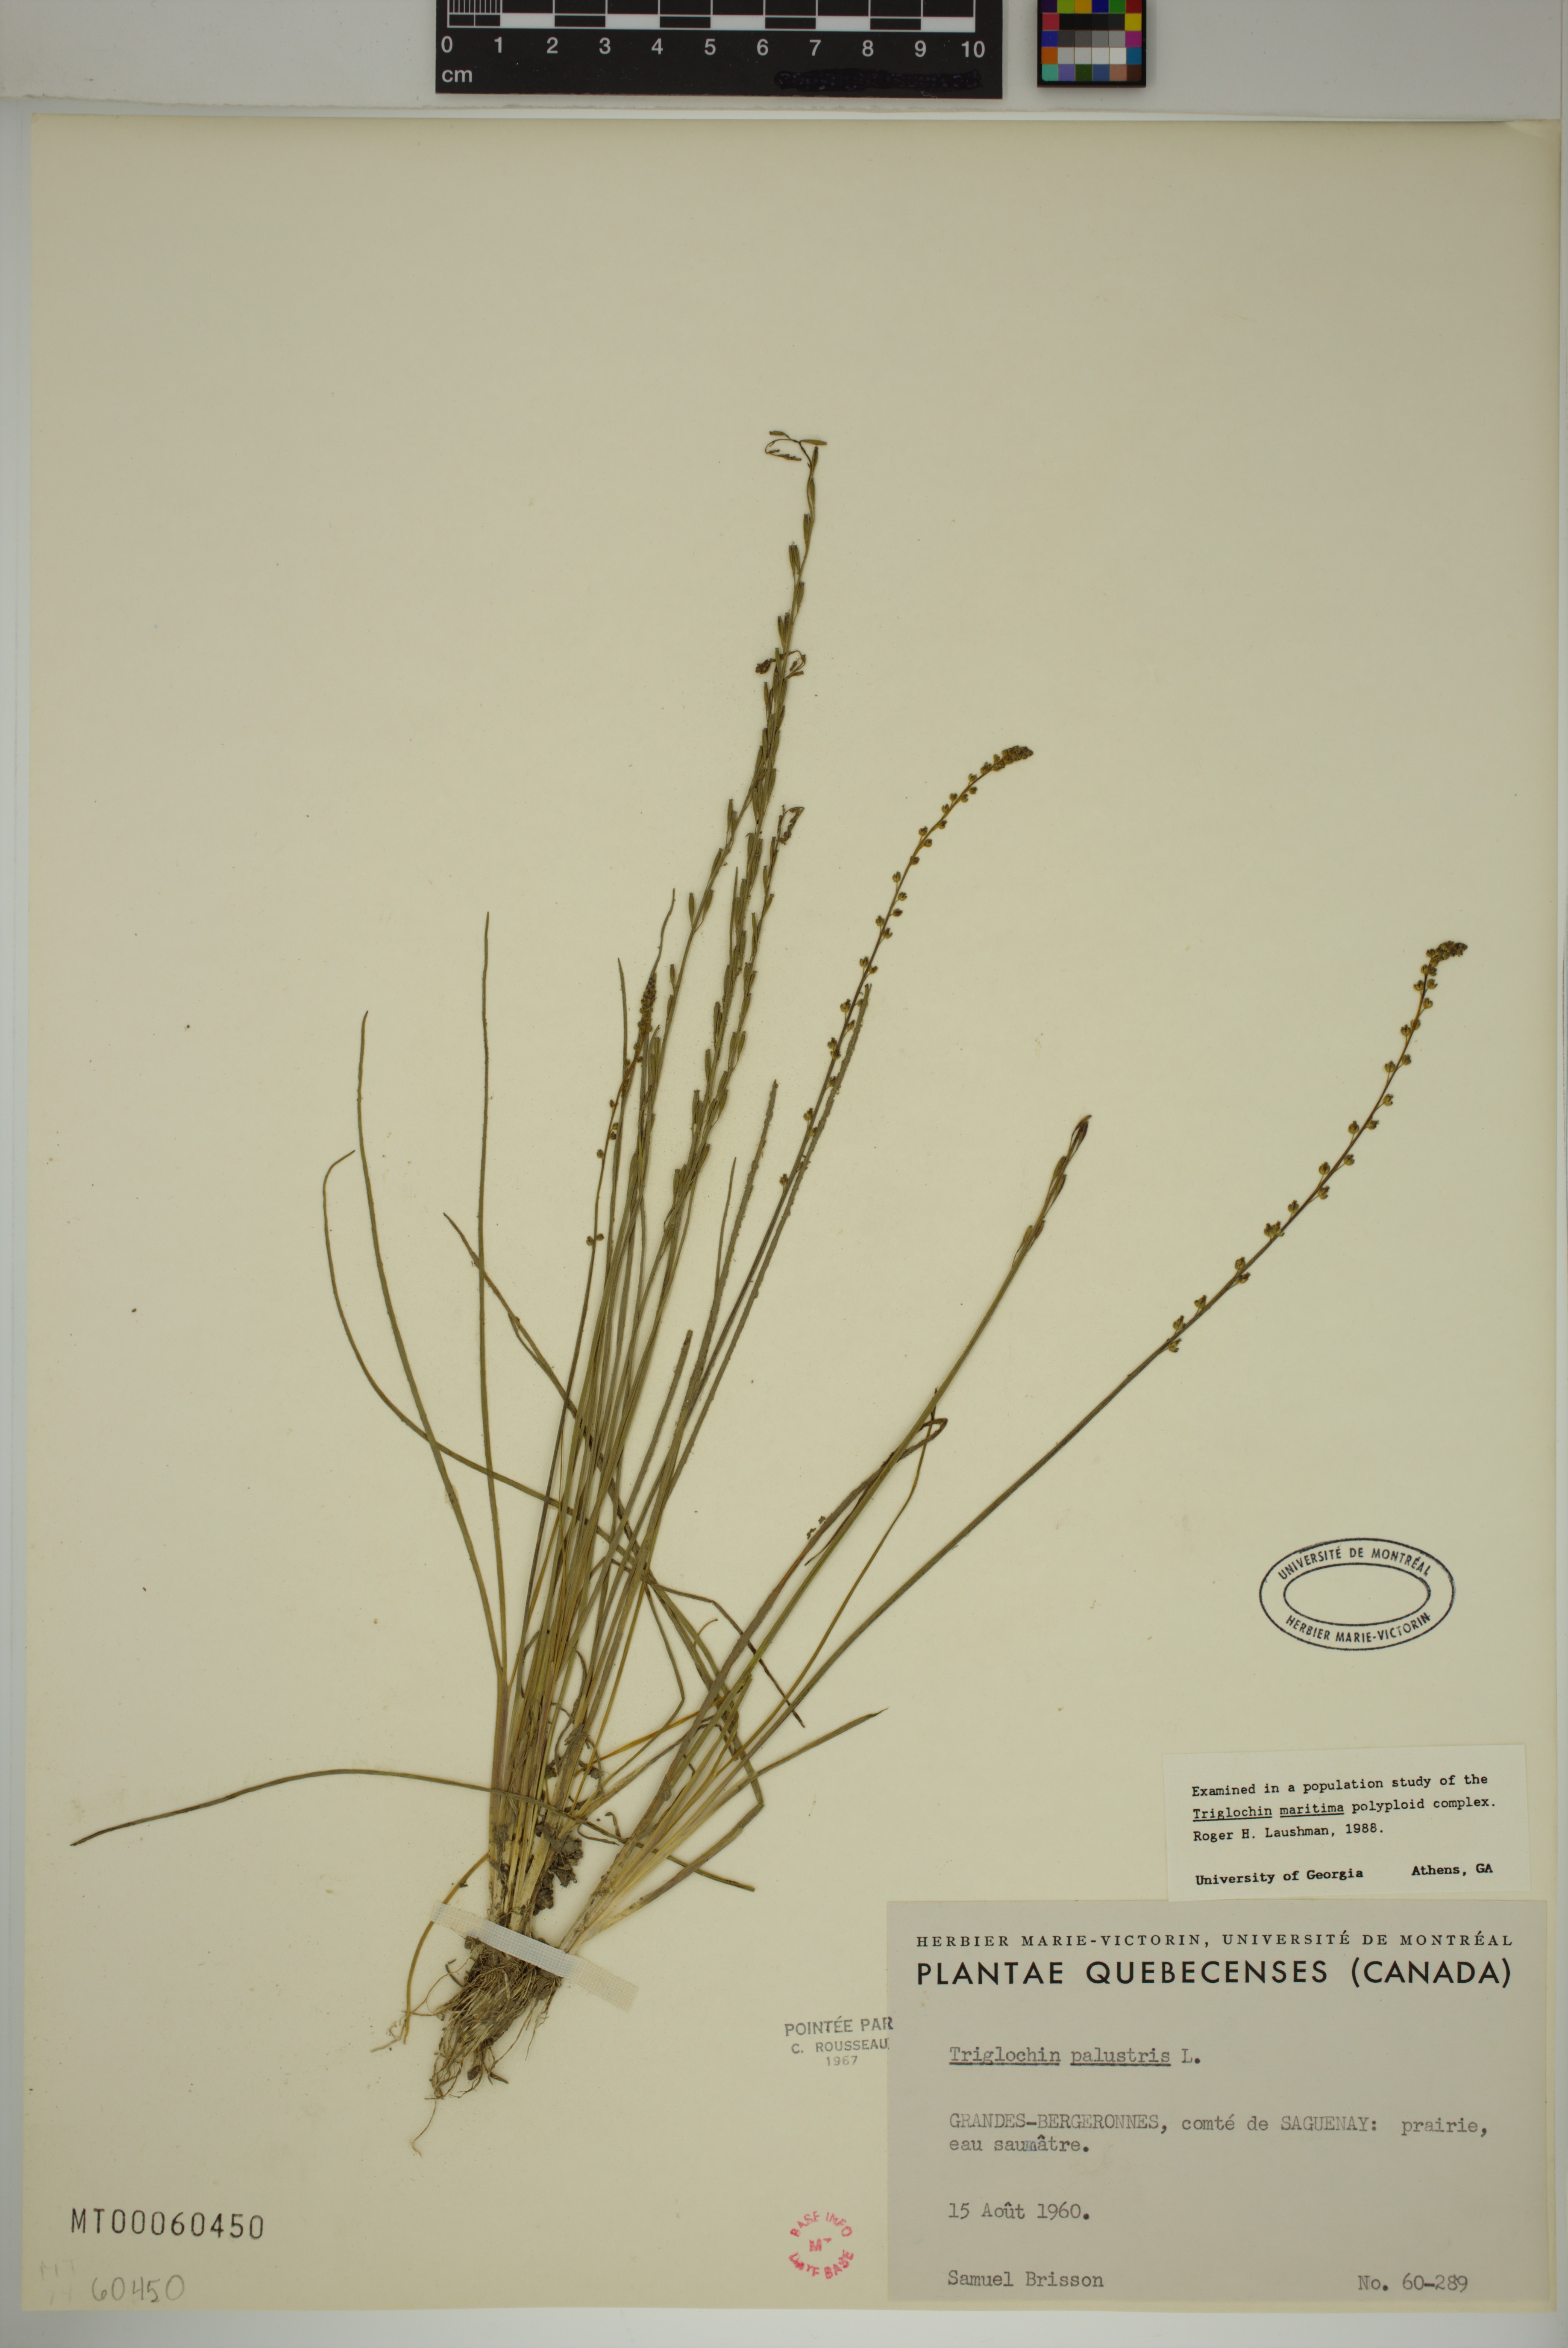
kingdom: Plantae
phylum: Tracheophyta
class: Liliopsida
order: Alismatales
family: Juncaginaceae
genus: Triglochin
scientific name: Triglochin palustris
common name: Marsh arrowgrass
